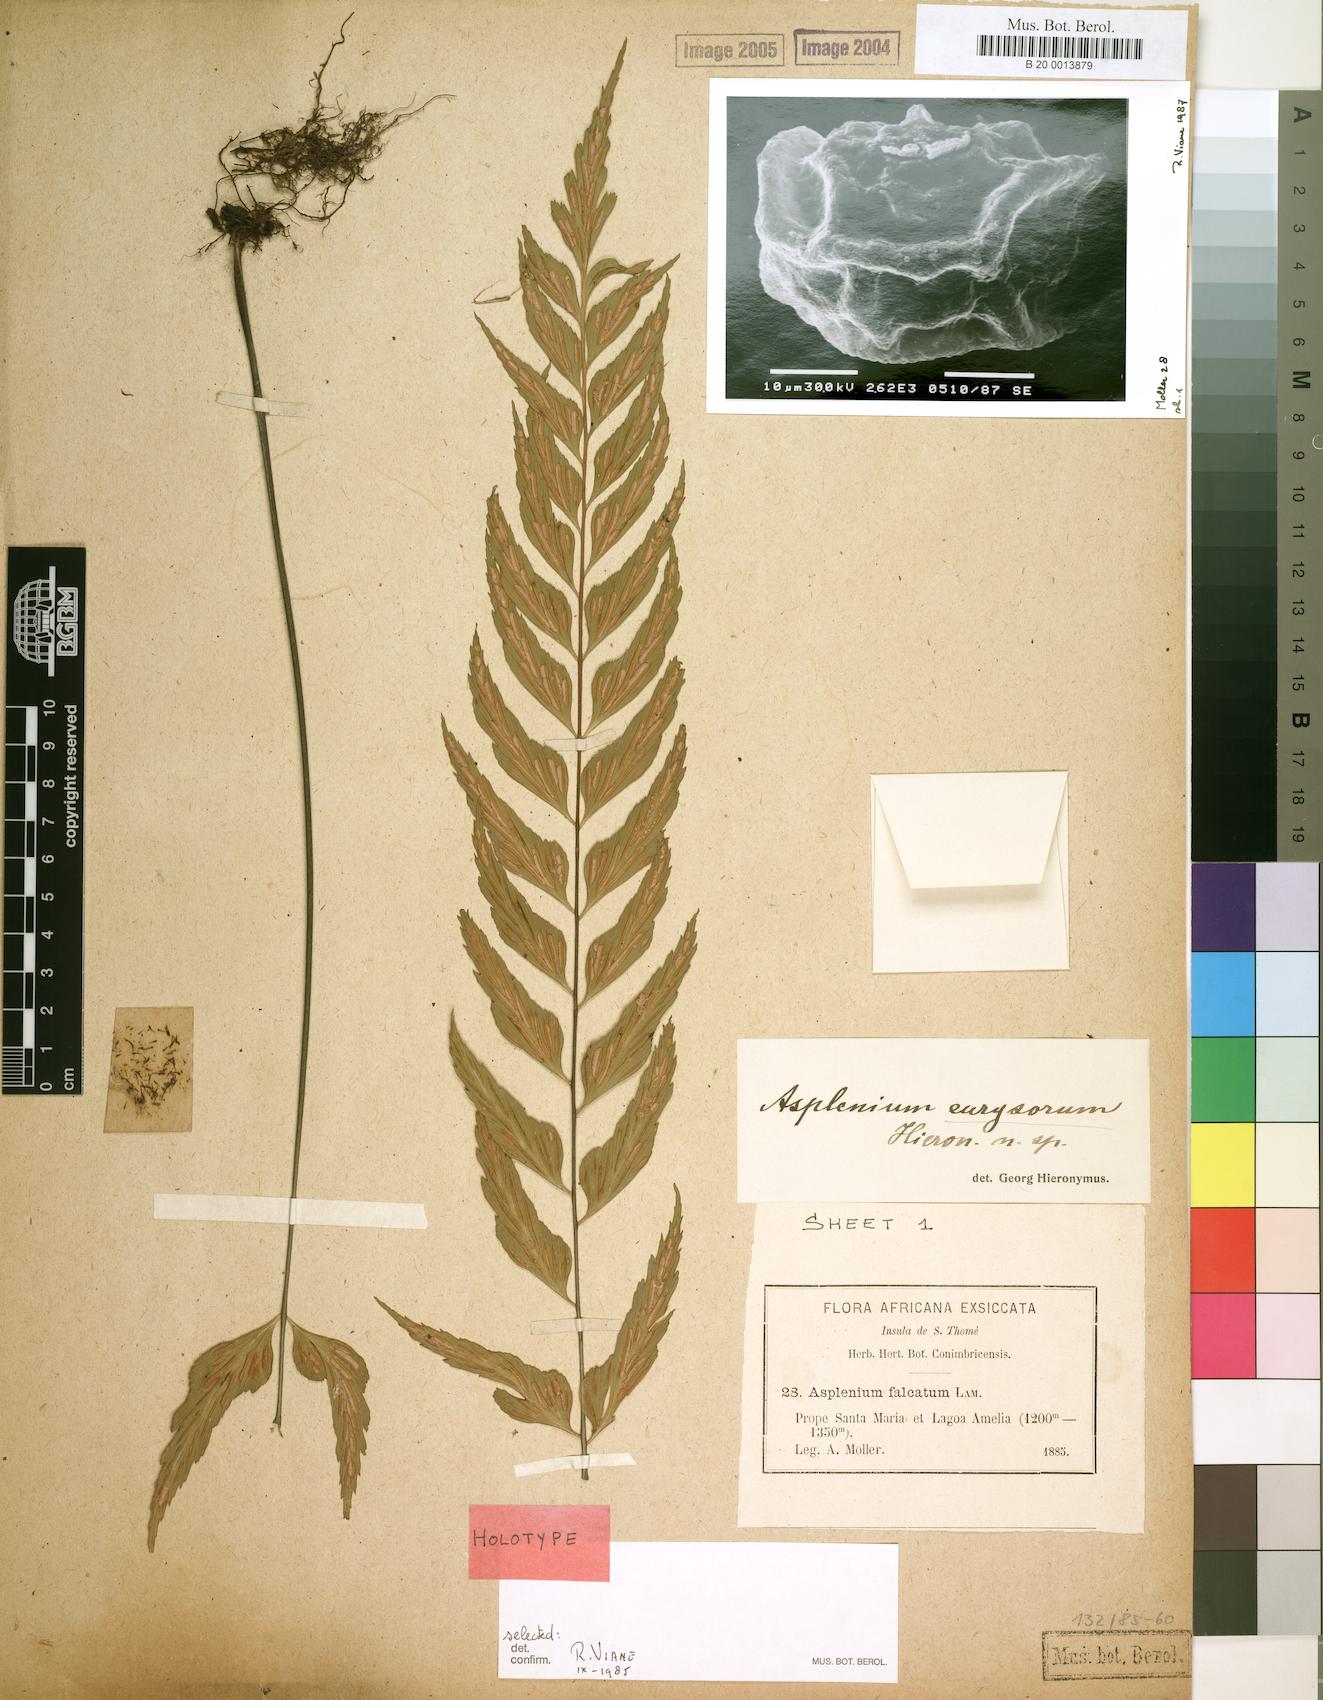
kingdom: Plantae
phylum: Tracheophyta
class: Polypodiopsida
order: Polypodiales
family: Aspleniaceae
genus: Asplenium
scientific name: Asplenium eurysorum
